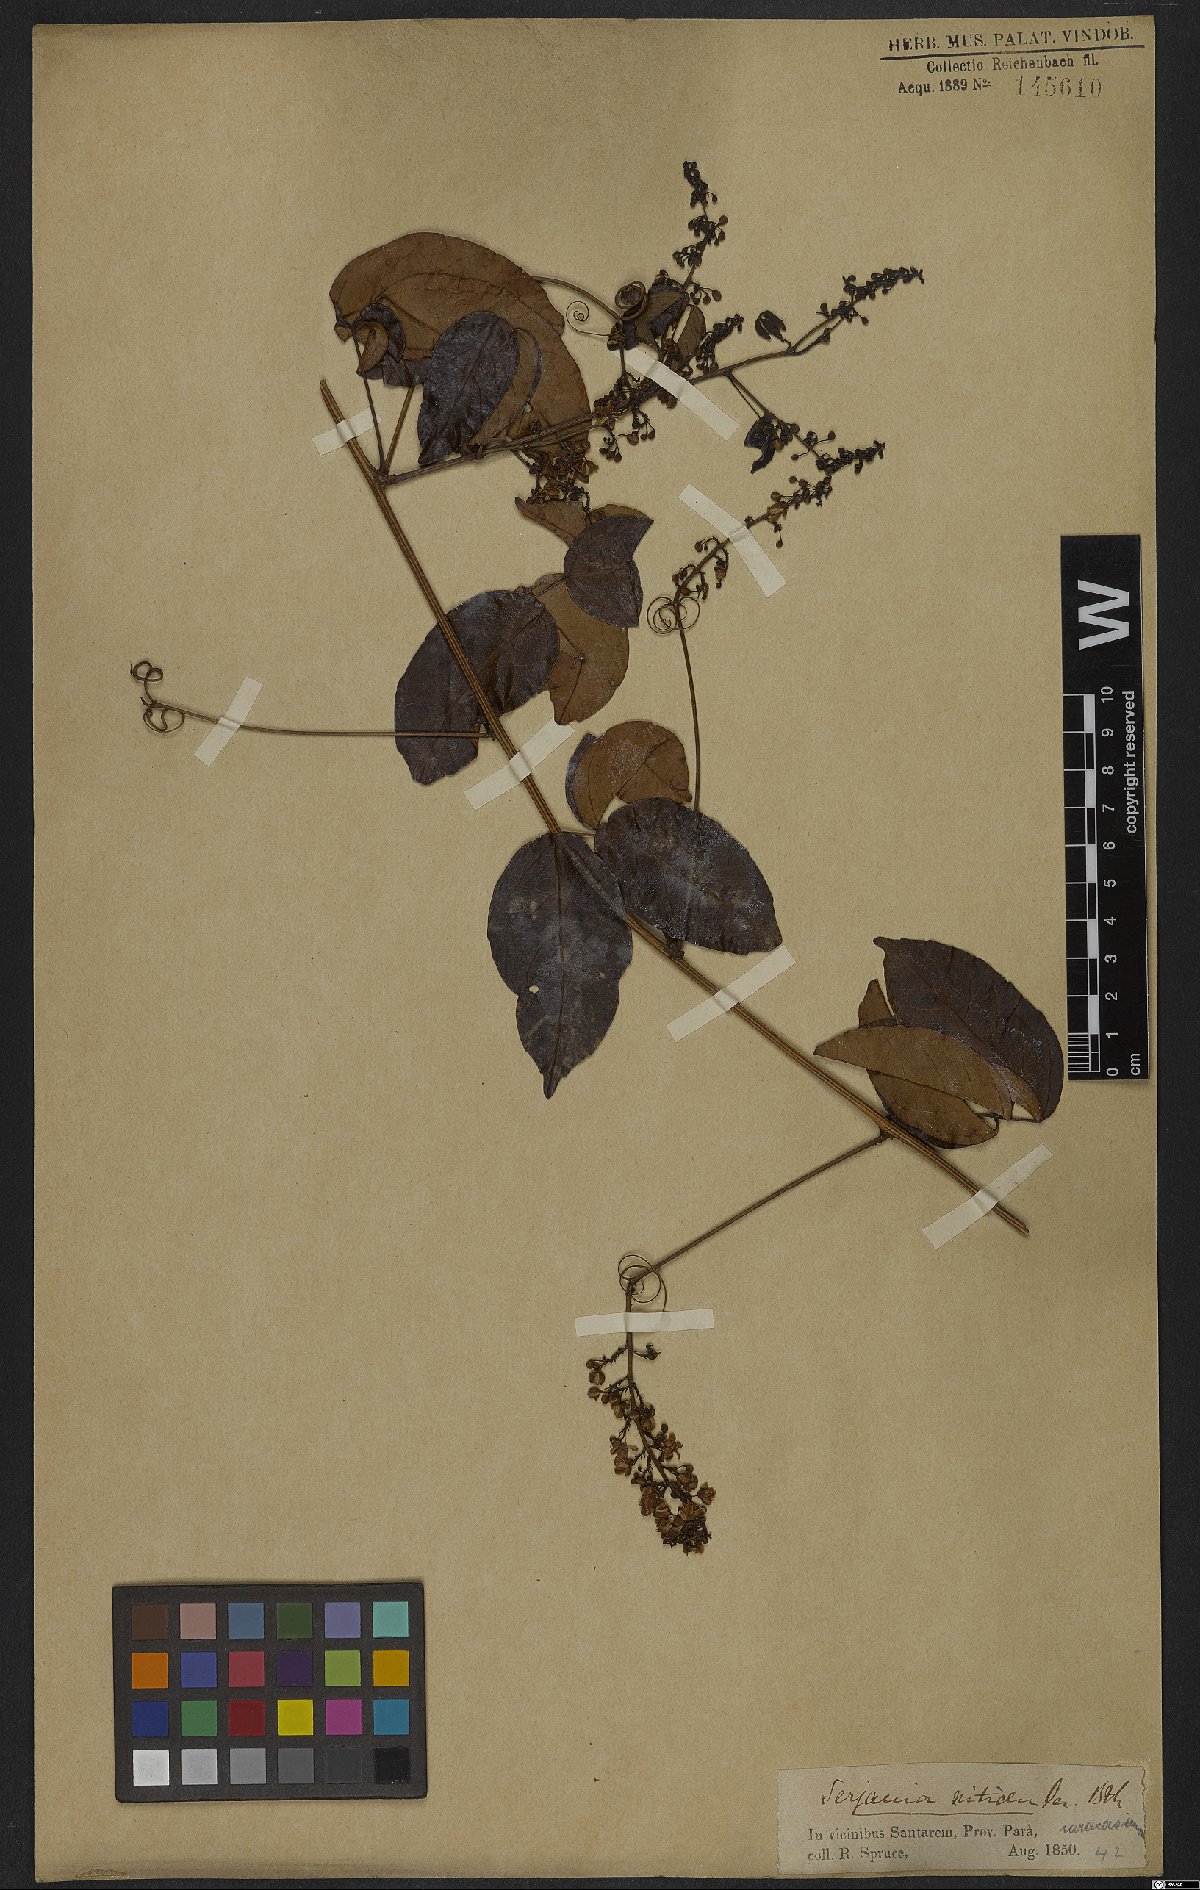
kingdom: Plantae
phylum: Tracheophyta
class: Magnoliopsida
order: Sapindales
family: Sapindaceae
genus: Serjania
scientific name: Serjania caracasana
